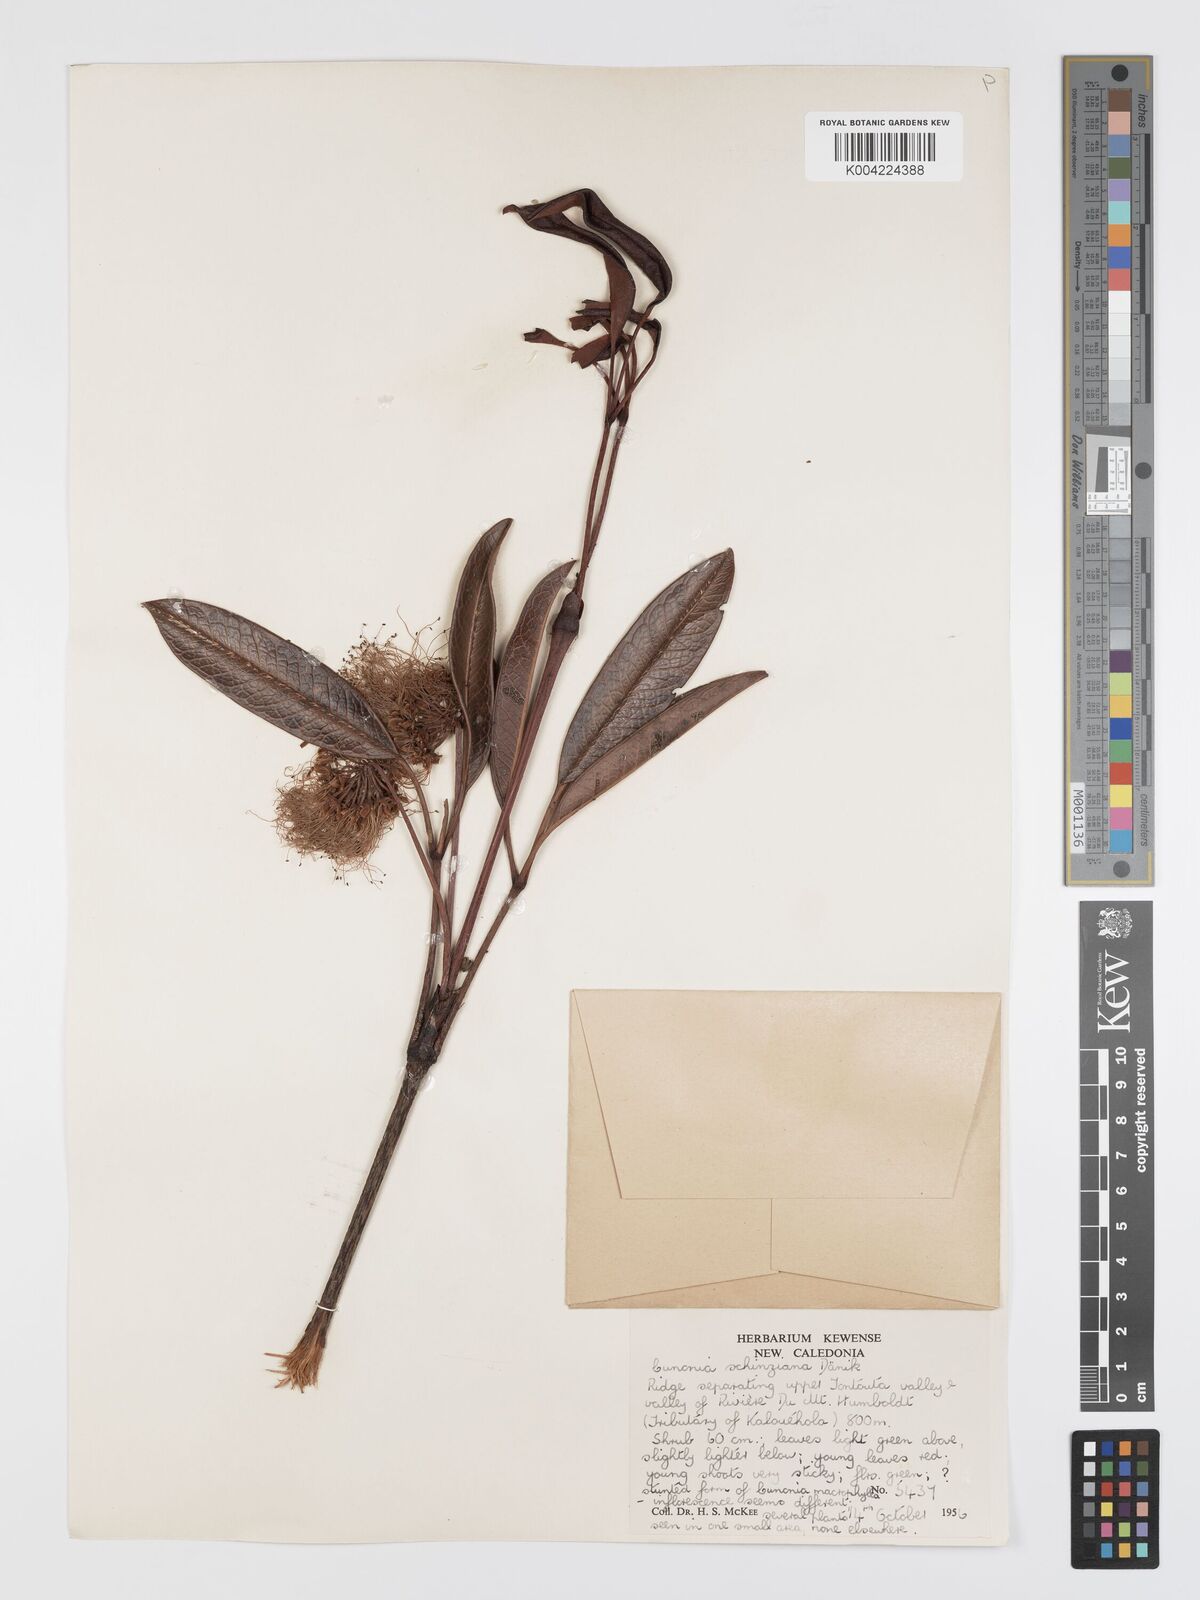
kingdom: Plantae
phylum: Tracheophyta
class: Magnoliopsida
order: Oxalidales
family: Cunoniaceae
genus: Cunonia
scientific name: Cunonia schinziana
